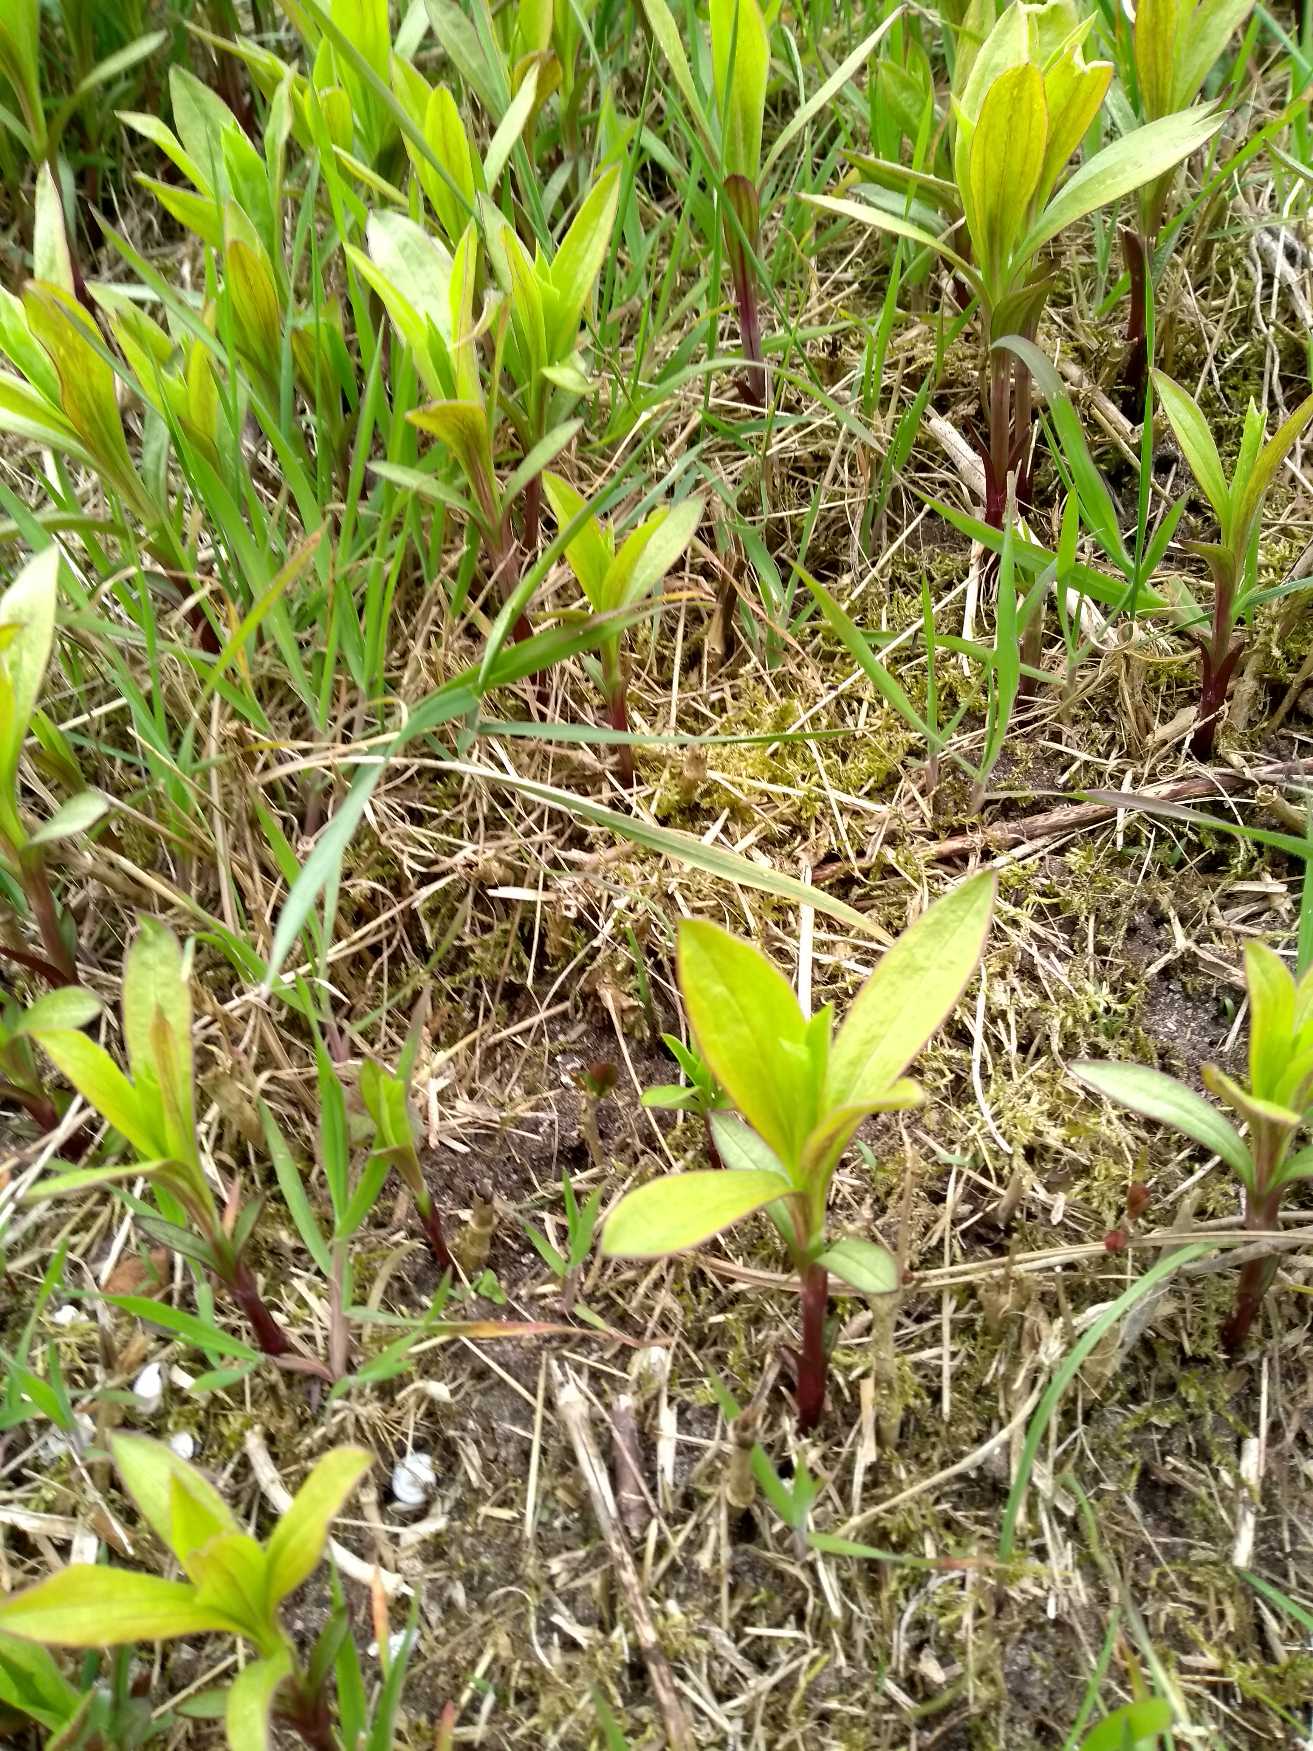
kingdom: Plantae
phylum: Tracheophyta
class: Magnoliopsida
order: Caryophyllales
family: Caryophyllaceae
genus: Saponaria
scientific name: Saponaria officinalis
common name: Sæbeurt
